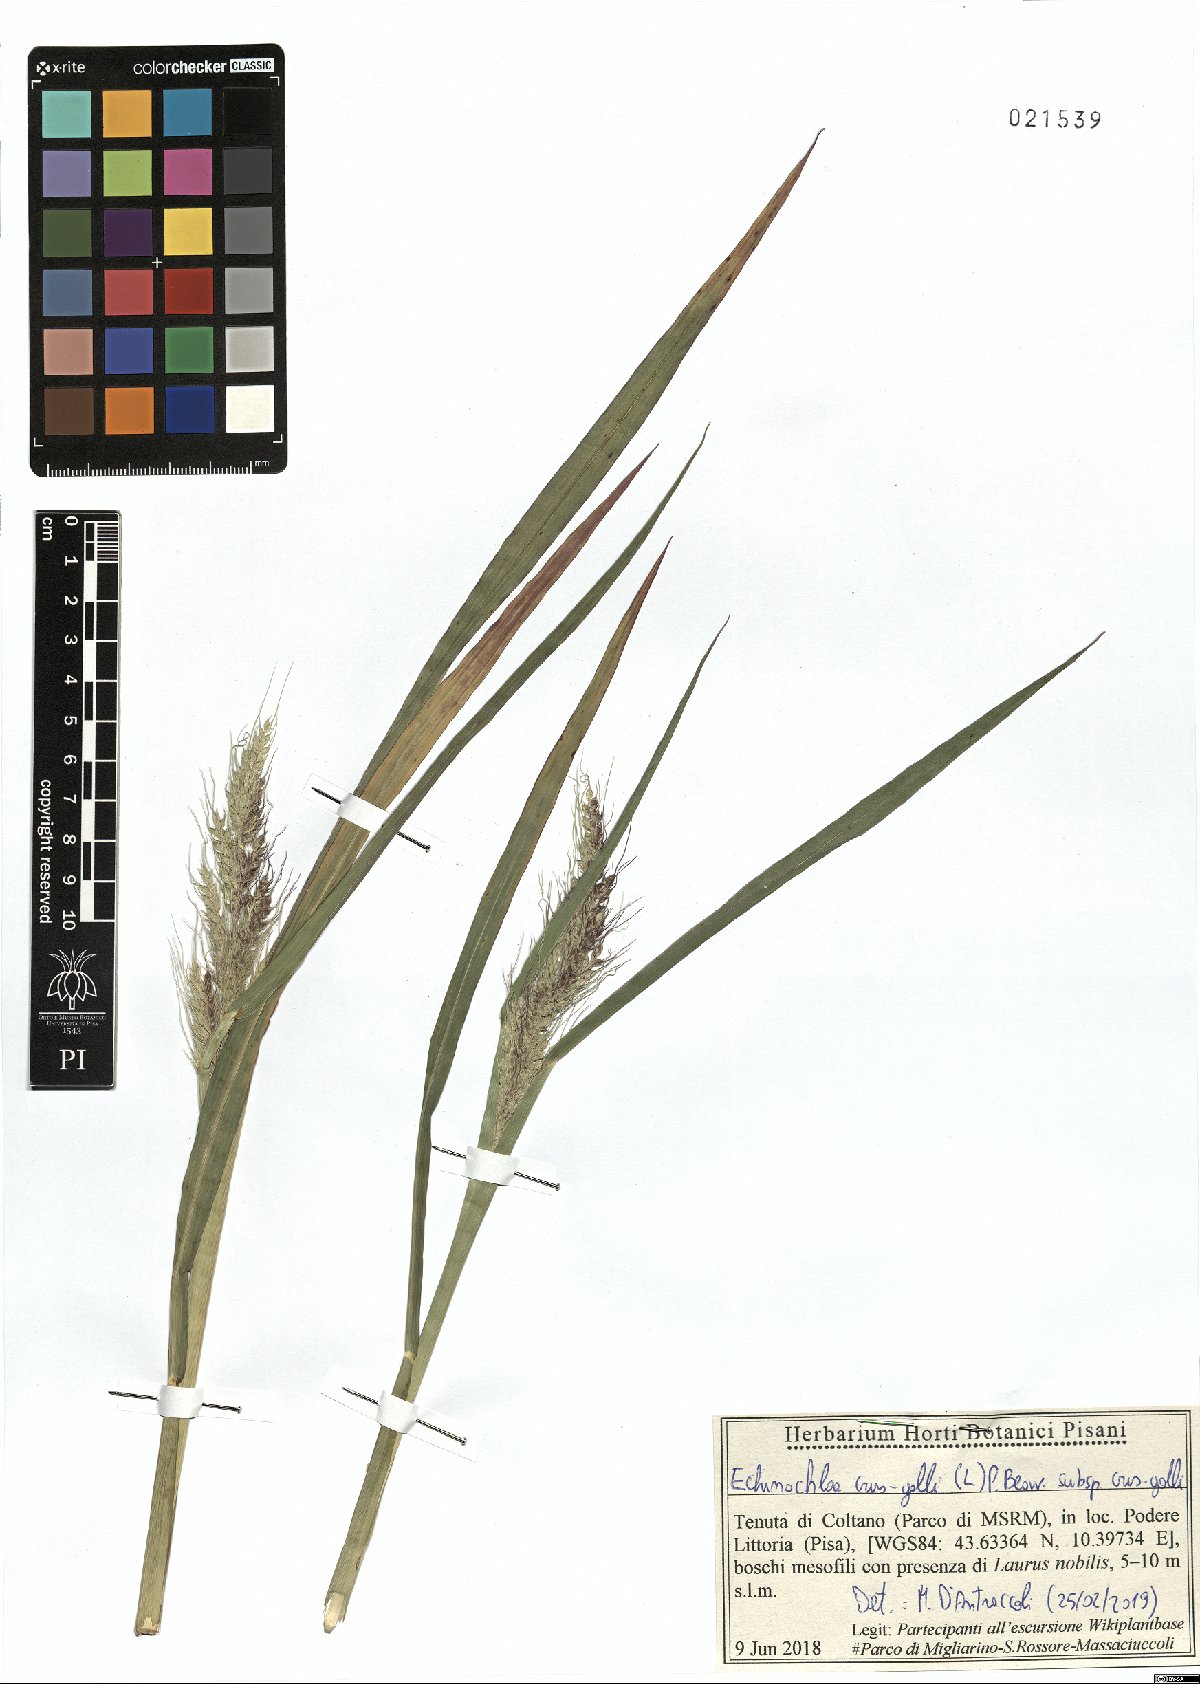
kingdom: Plantae
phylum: Tracheophyta
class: Liliopsida
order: Poales
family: Poaceae
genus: Echinochloa
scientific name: Echinochloa crus-galli
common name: Cockspur
